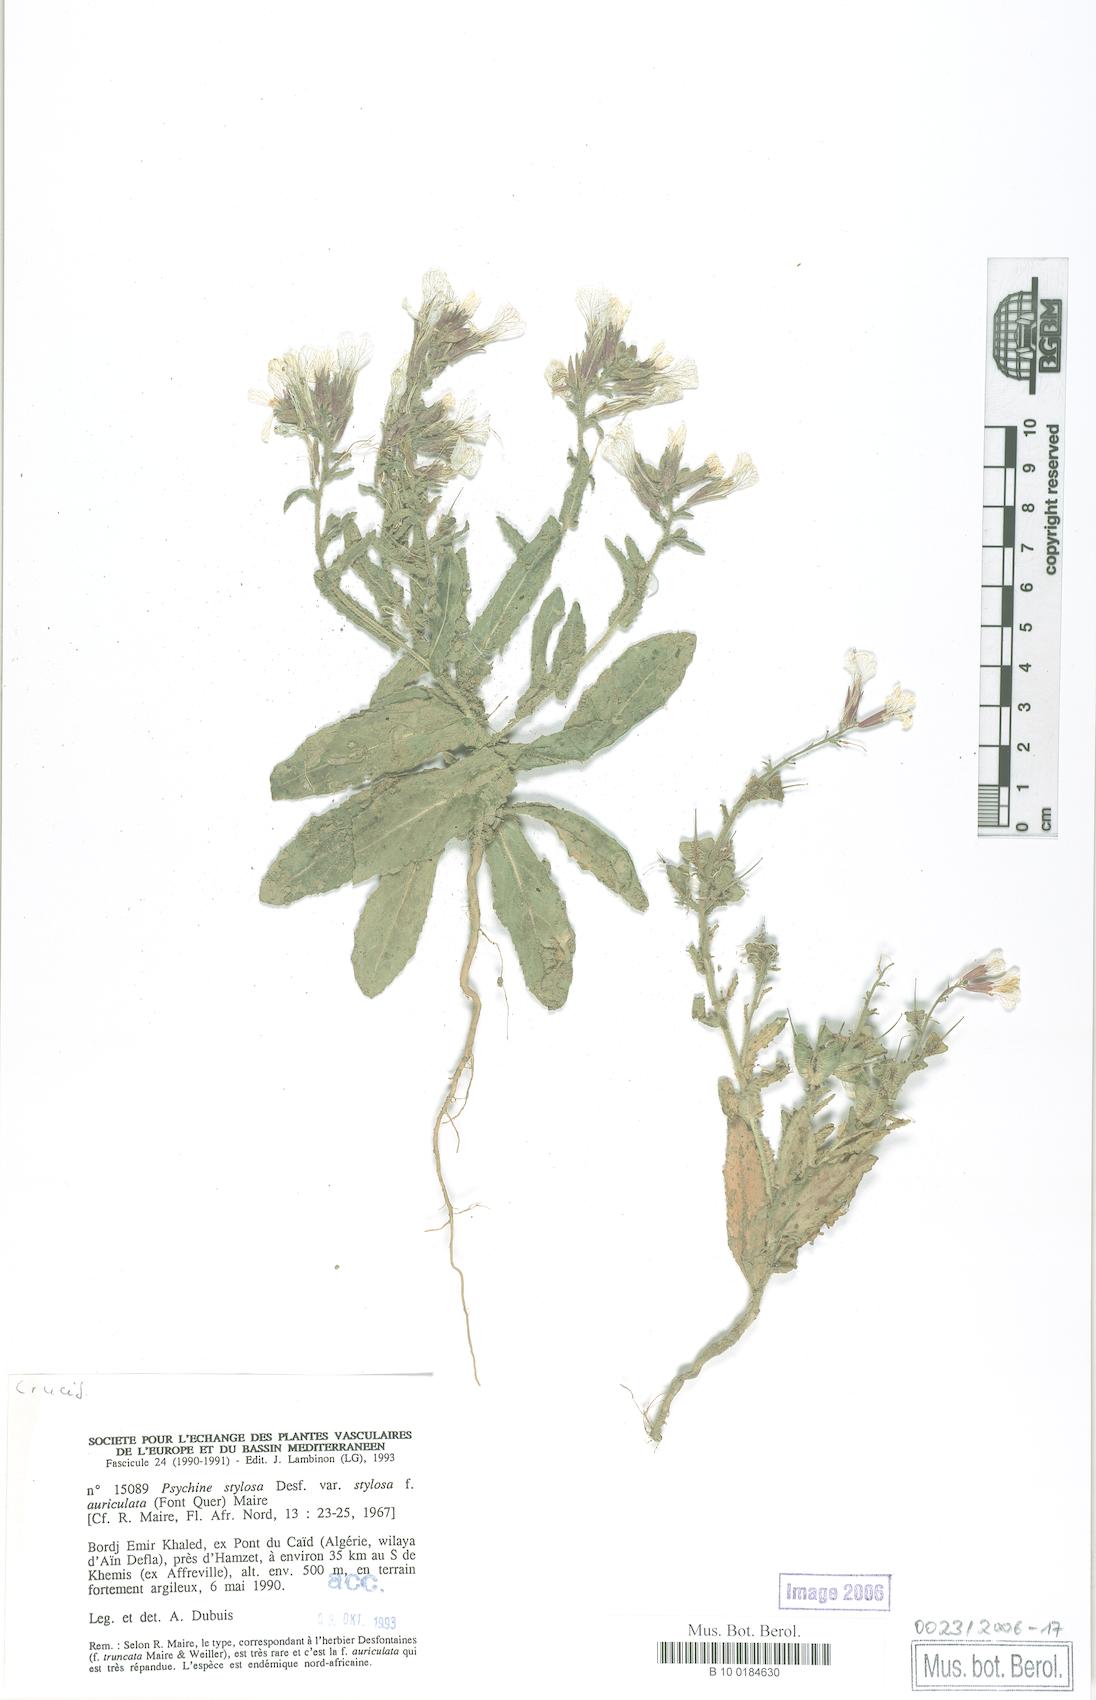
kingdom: Plantae
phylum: Tracheophyta
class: Magnoliopsida
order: Brassicales
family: Brassicaceae
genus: Psychine
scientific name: Psychine stylosa
